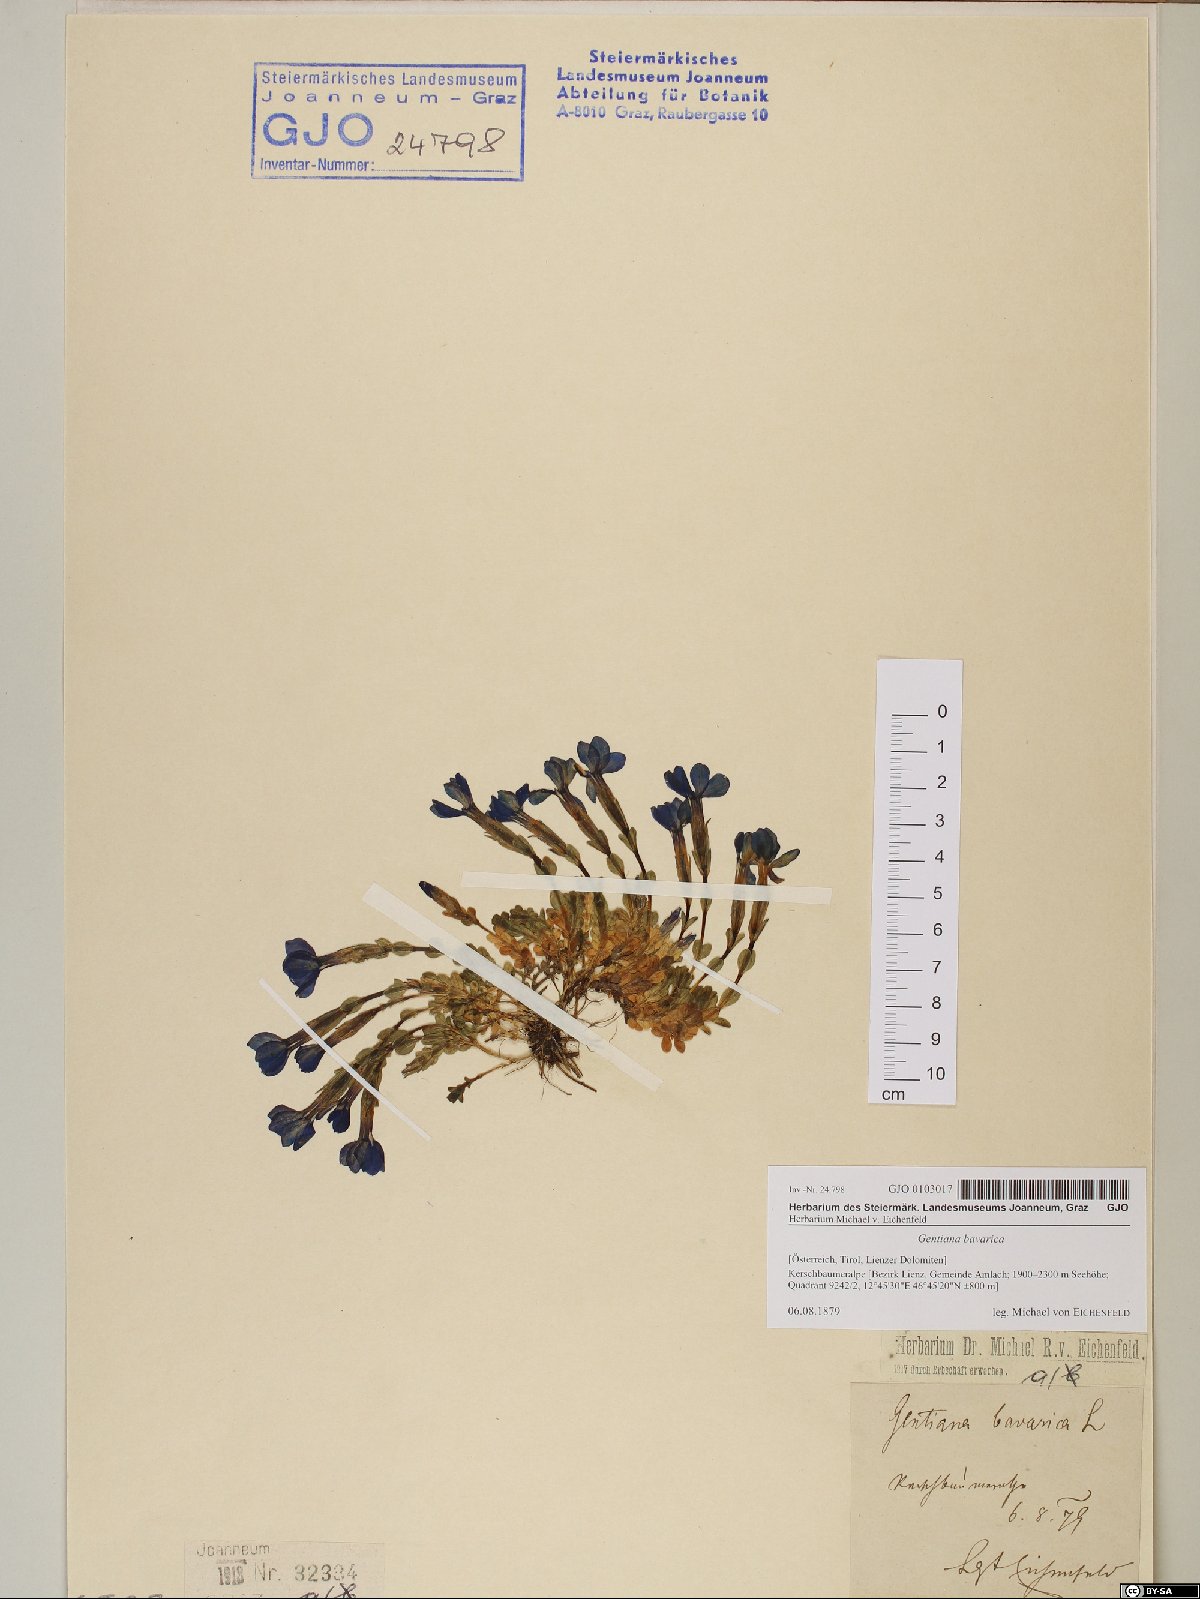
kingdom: Plantae
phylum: Tracheophyta
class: Magnoliopsida
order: Gentianales
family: Gentianaceae
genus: Gentiana
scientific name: Gentiana bavarica
